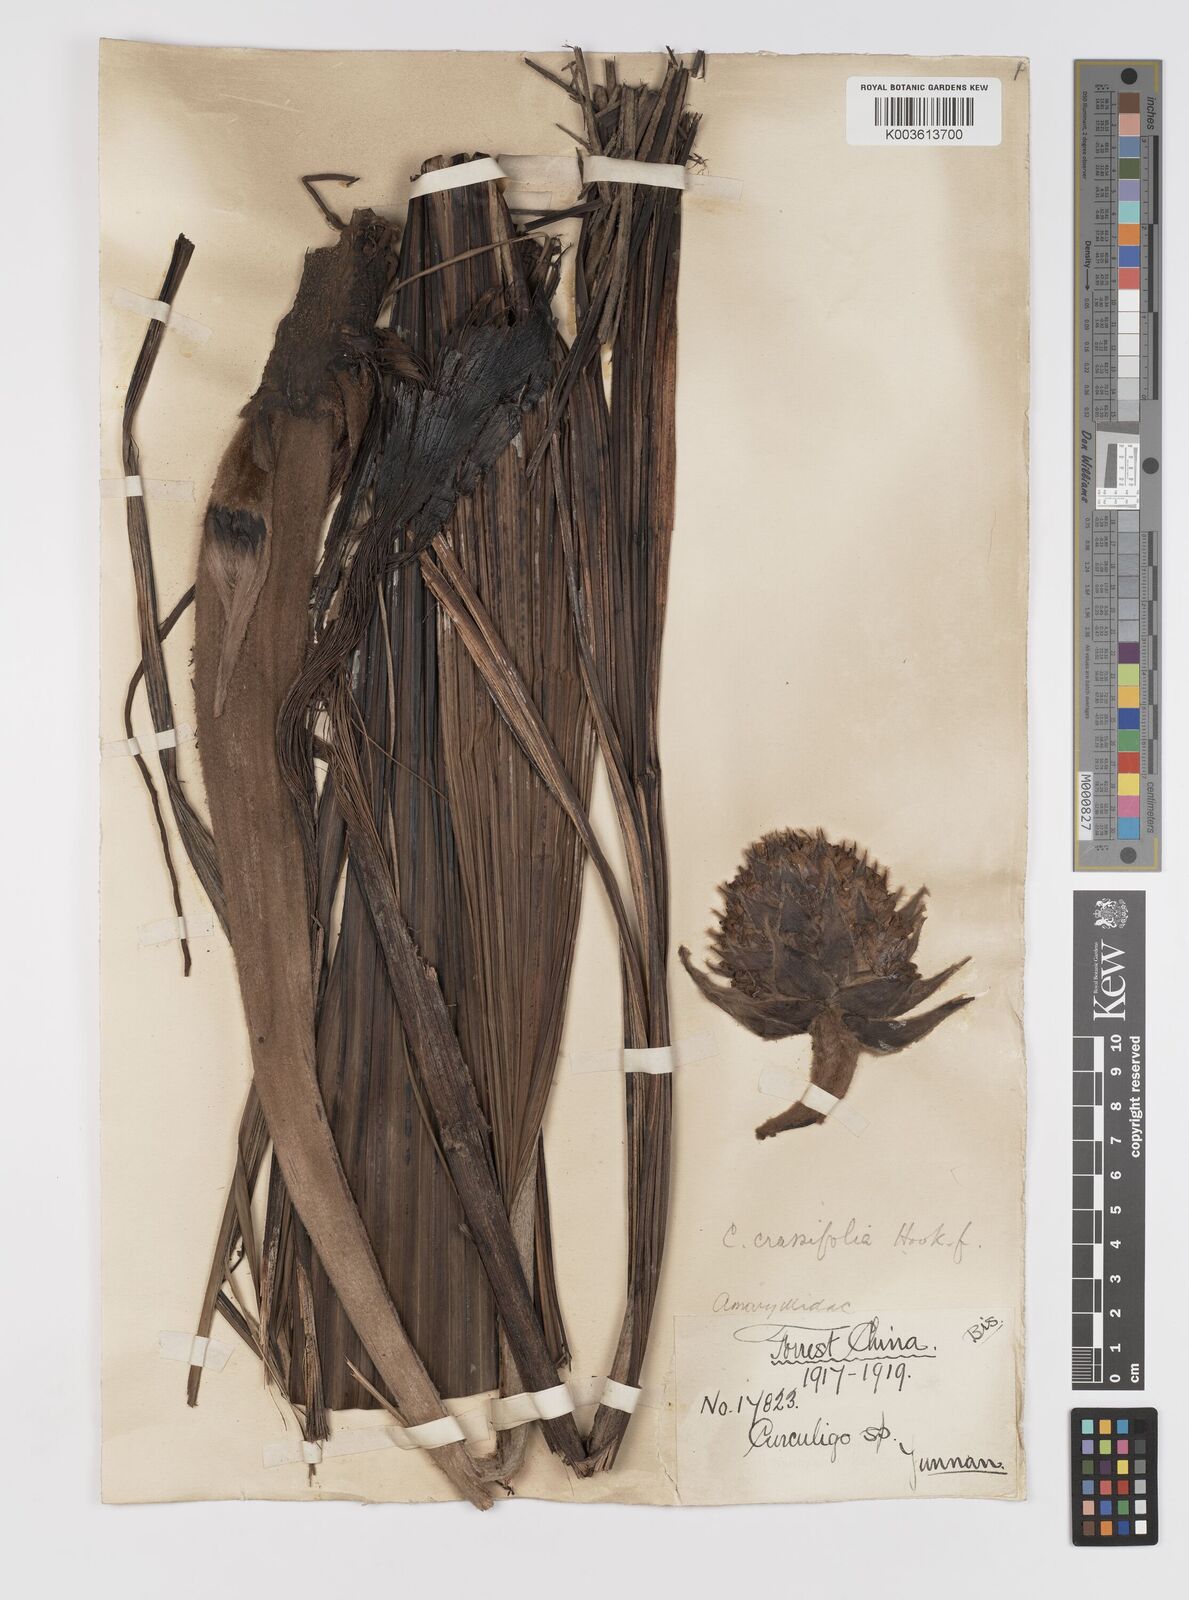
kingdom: Plantae
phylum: Tracheophyta
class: Liliopsida
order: Asparagales
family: Hypoxidaceae
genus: Curculigo
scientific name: Curculigo crassifolia
